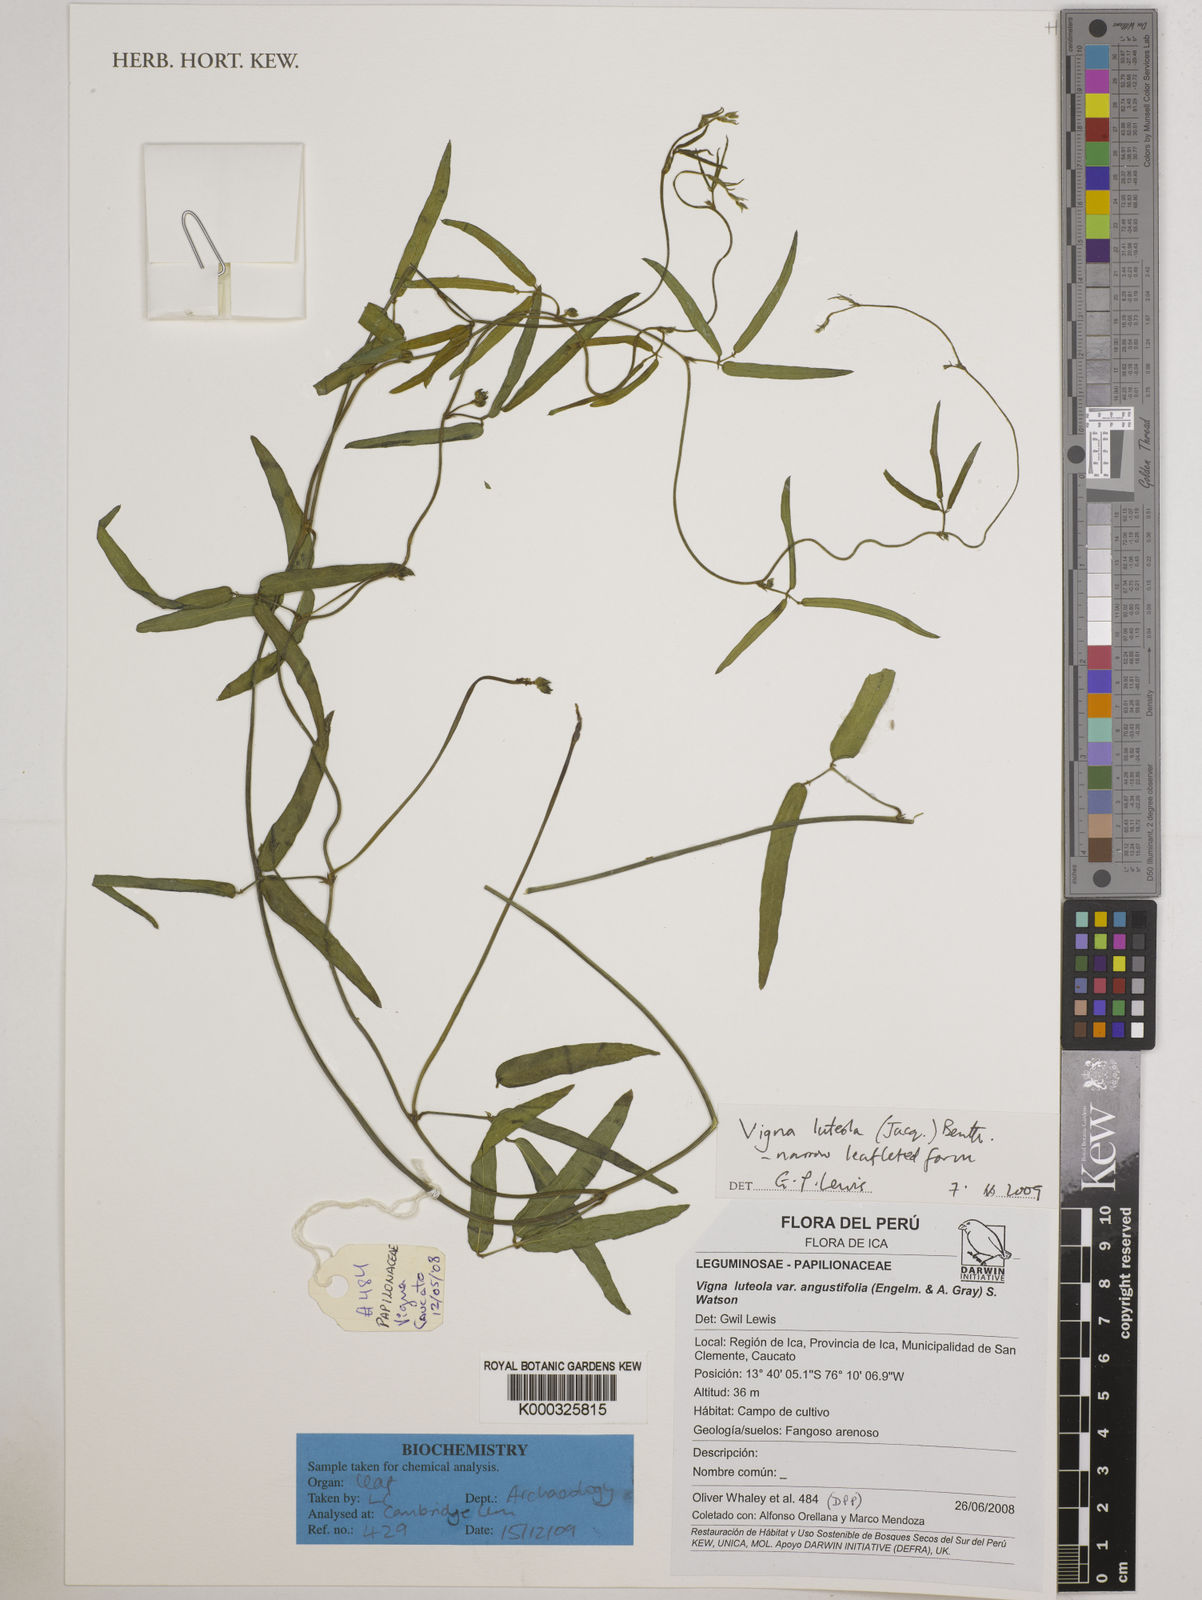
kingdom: Plantae
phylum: Tracheophyta
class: Magnoliopsida
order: Fabales
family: Fabaceae
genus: Vigna
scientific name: Vigna luteola
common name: Hairypod cowpea
